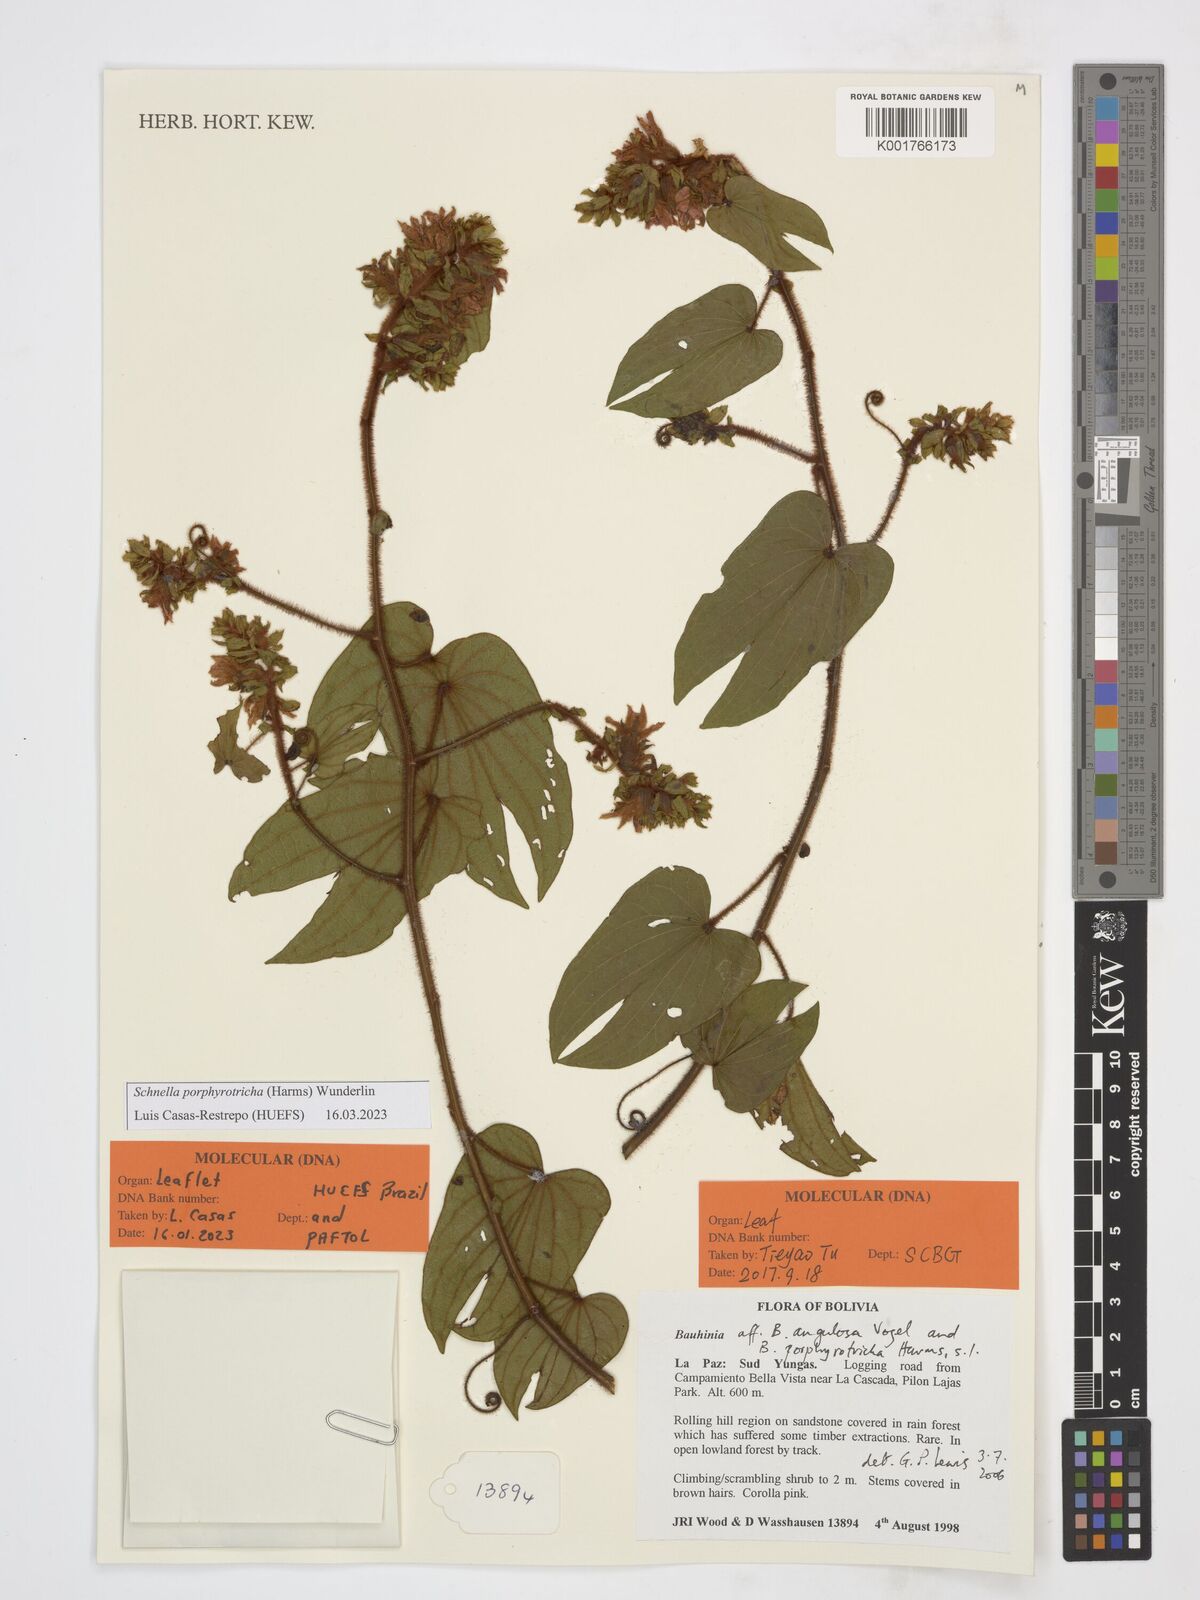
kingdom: Plantae
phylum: Tracheophyta
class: Magnoliopsida
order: Fabales
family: Fabaceae
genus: Schnella
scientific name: Schnella porphyrotricha
